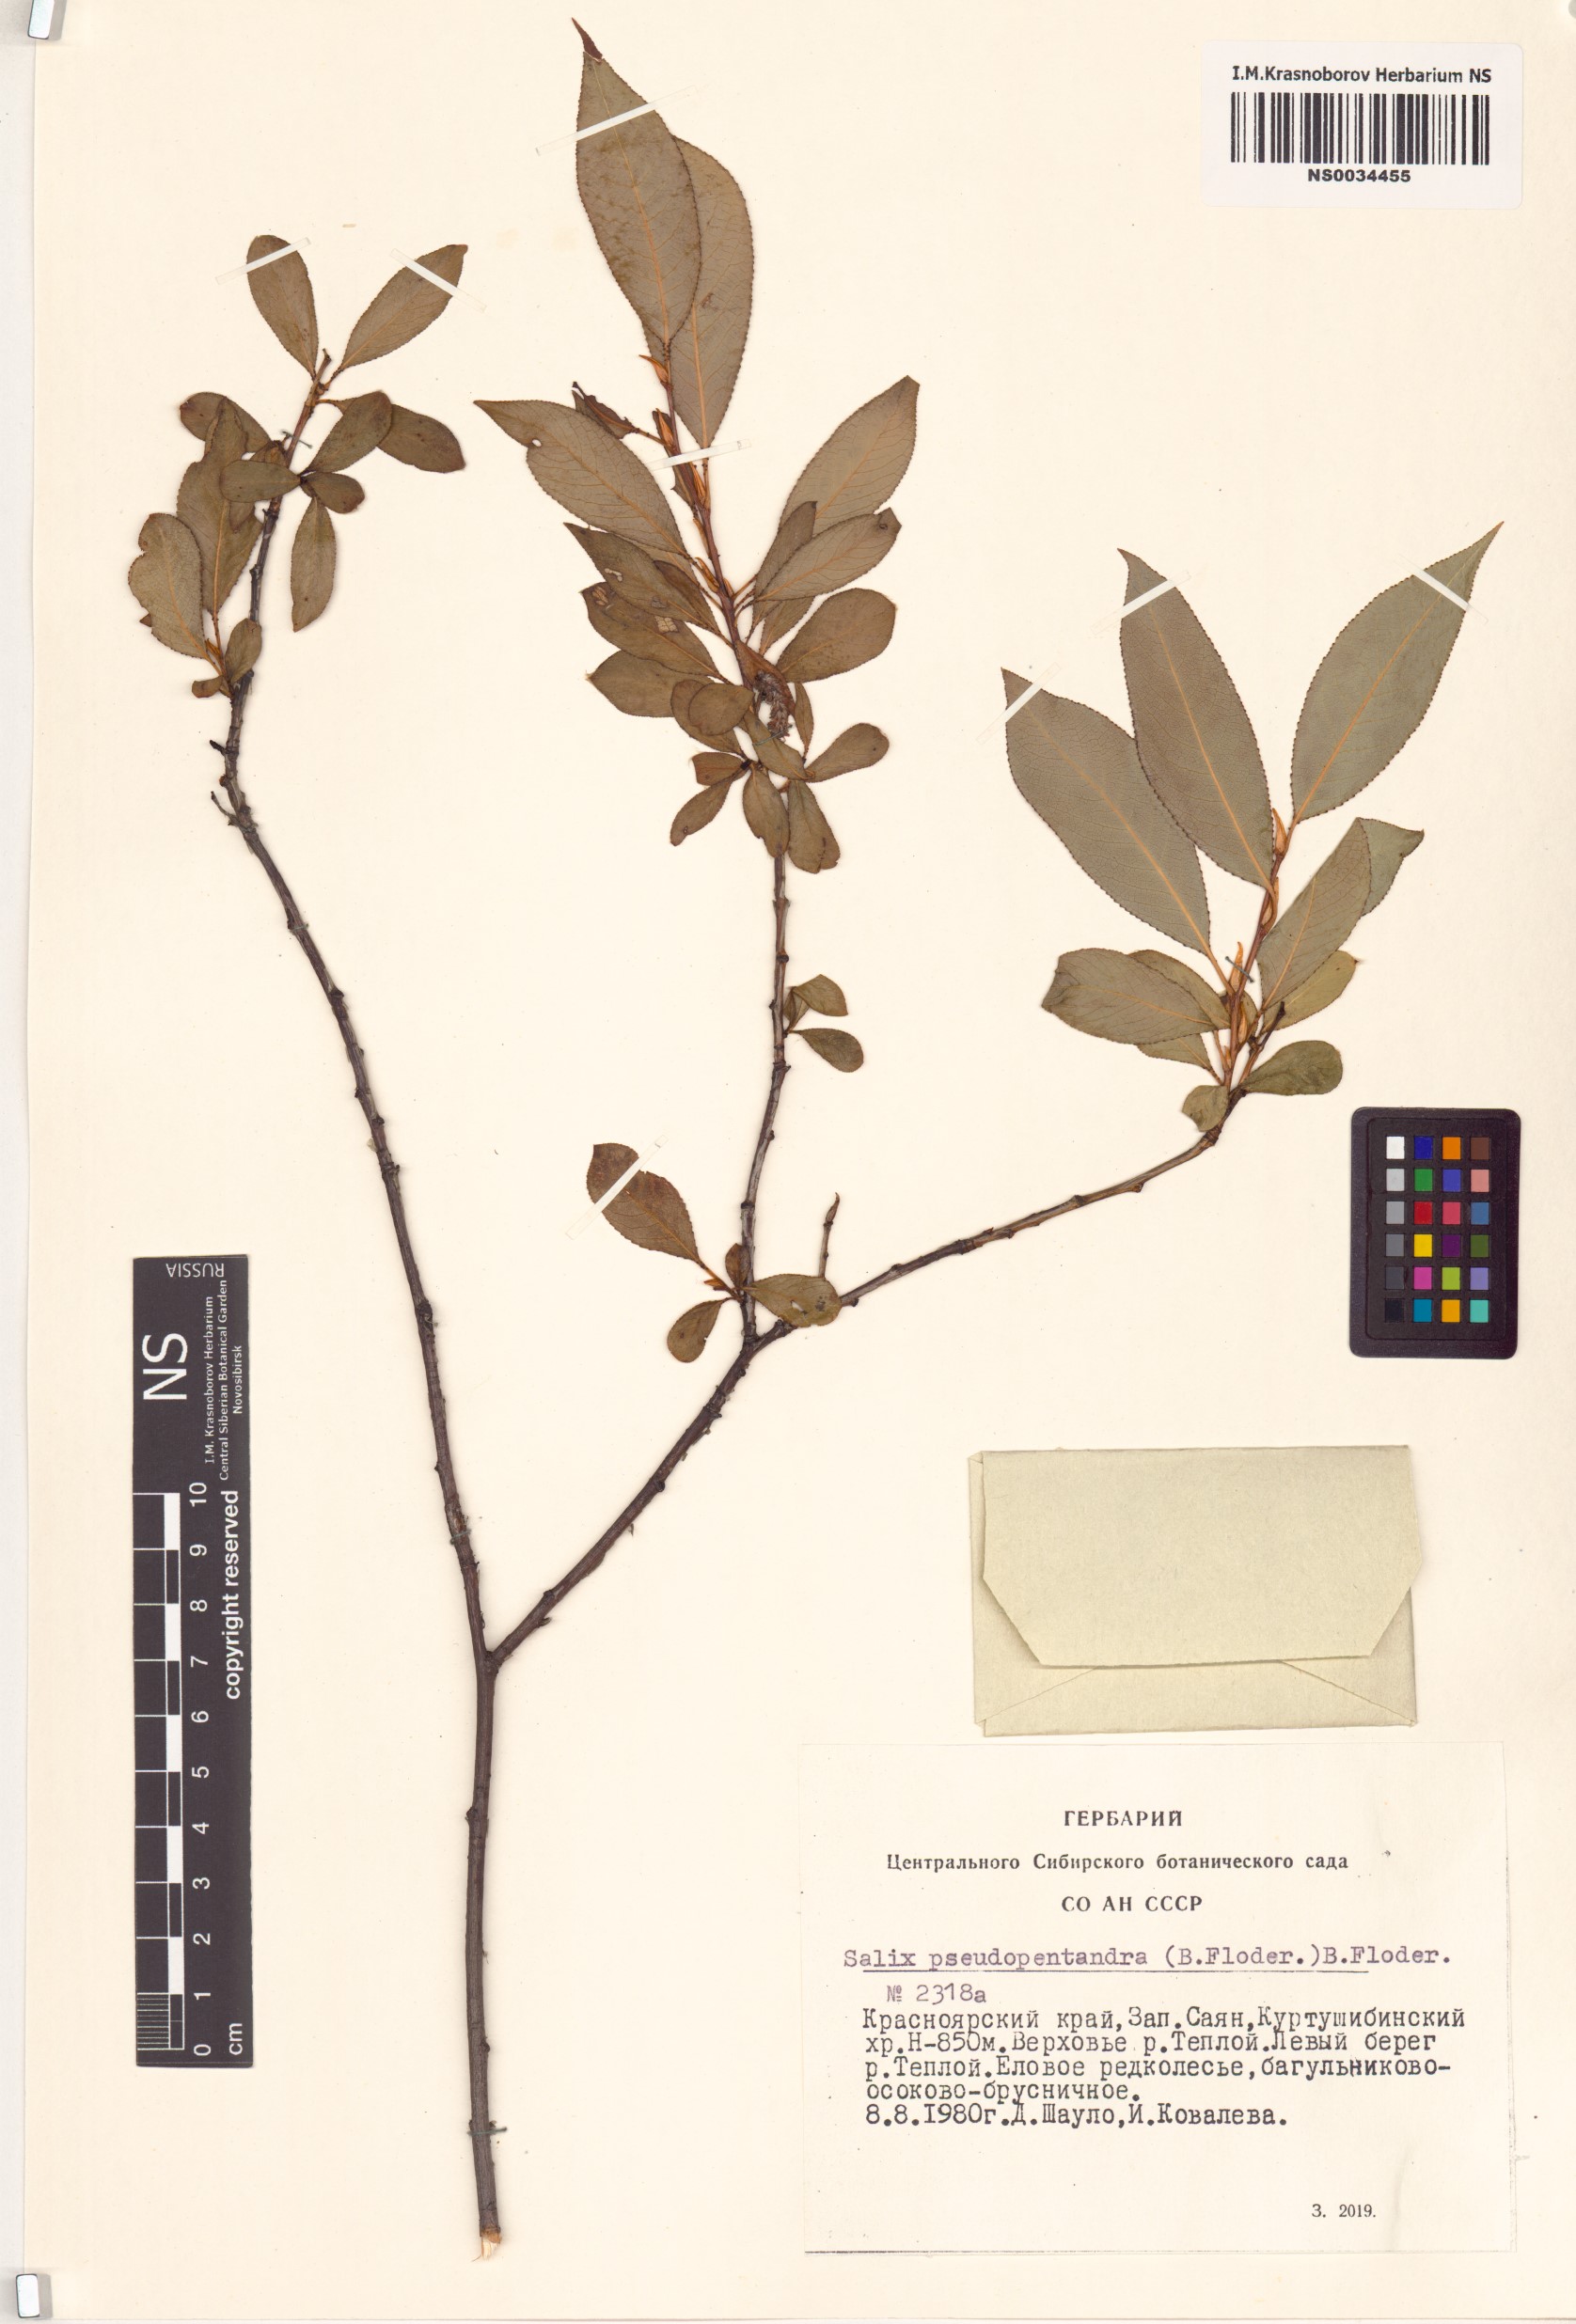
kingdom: Plantae
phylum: Tracheophyta
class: Magnoliopsida
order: Malpighiales
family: Salicaceae
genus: Salix
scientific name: Salix pseudopentandra
